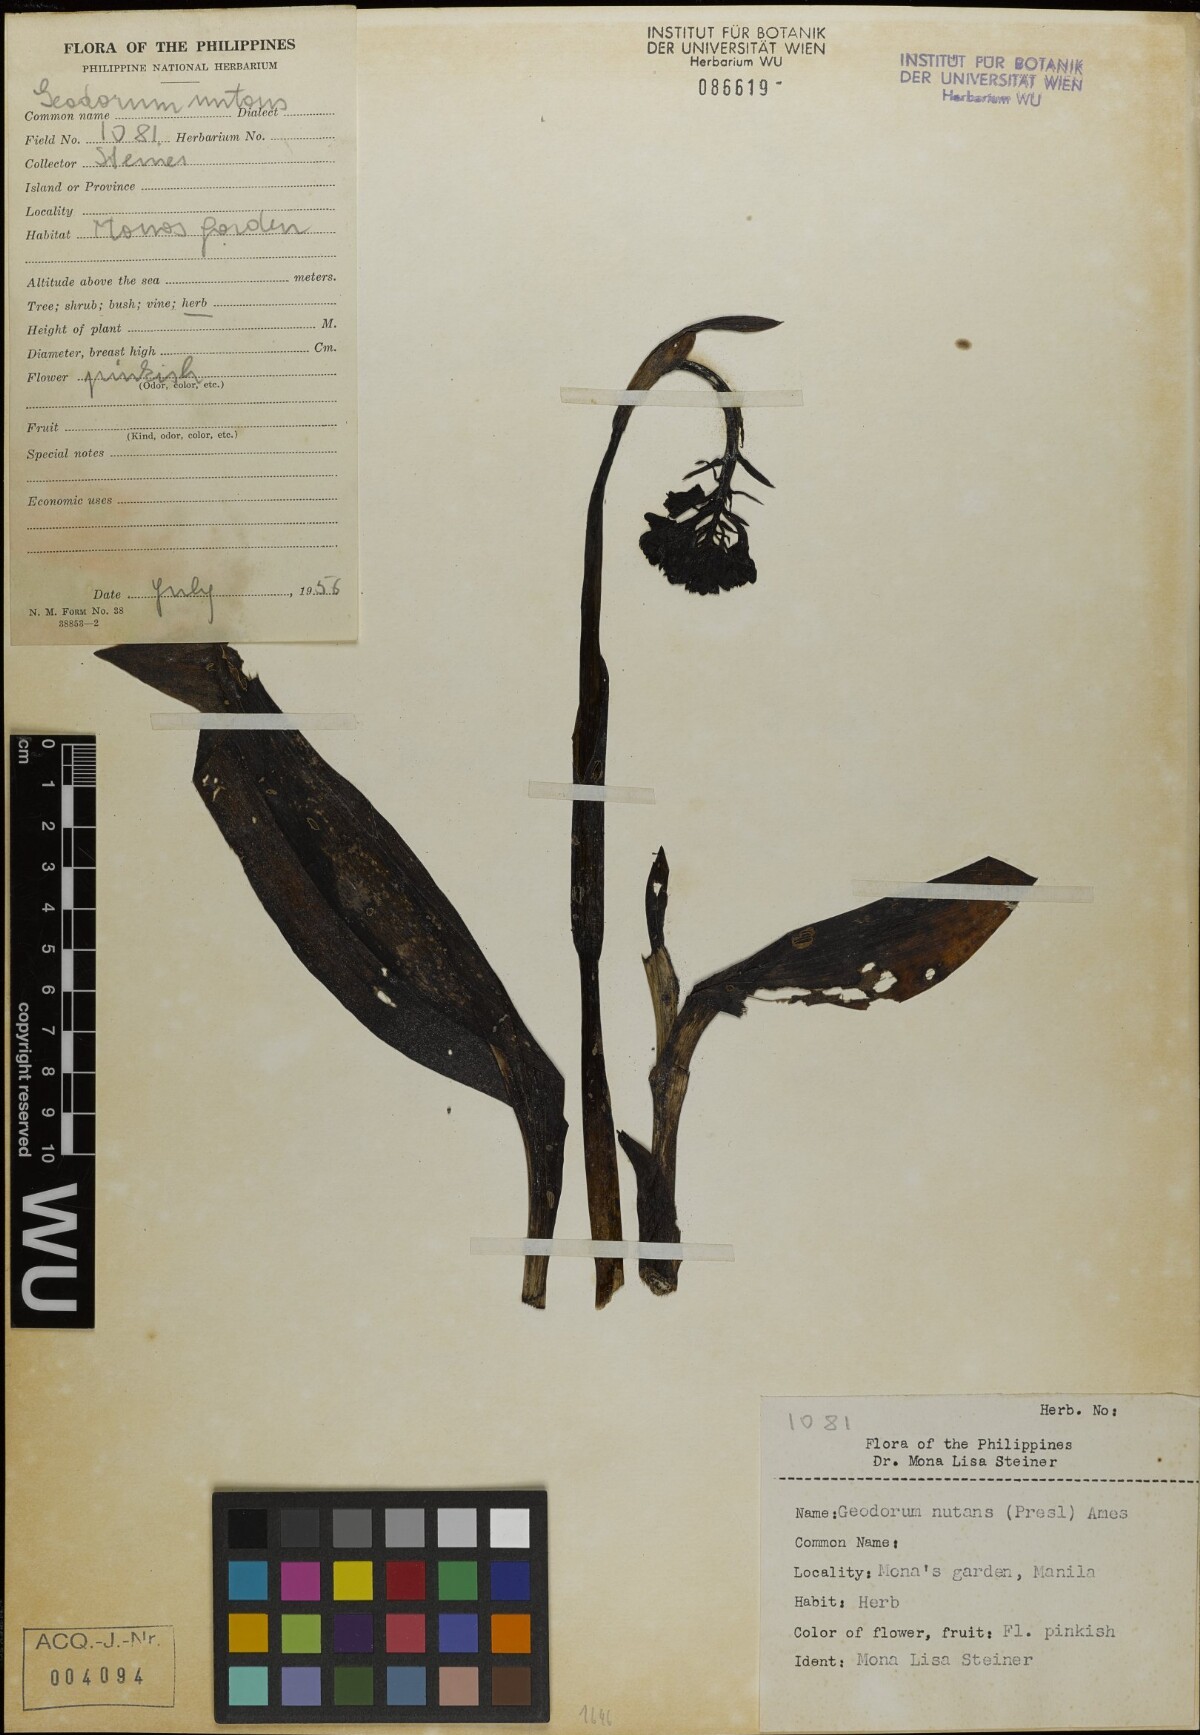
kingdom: Plantae
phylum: Tracheophyta
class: Liliopsida
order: Asparagales
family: Orchidaceae
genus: Eulophia
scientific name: Eulophia cernua
